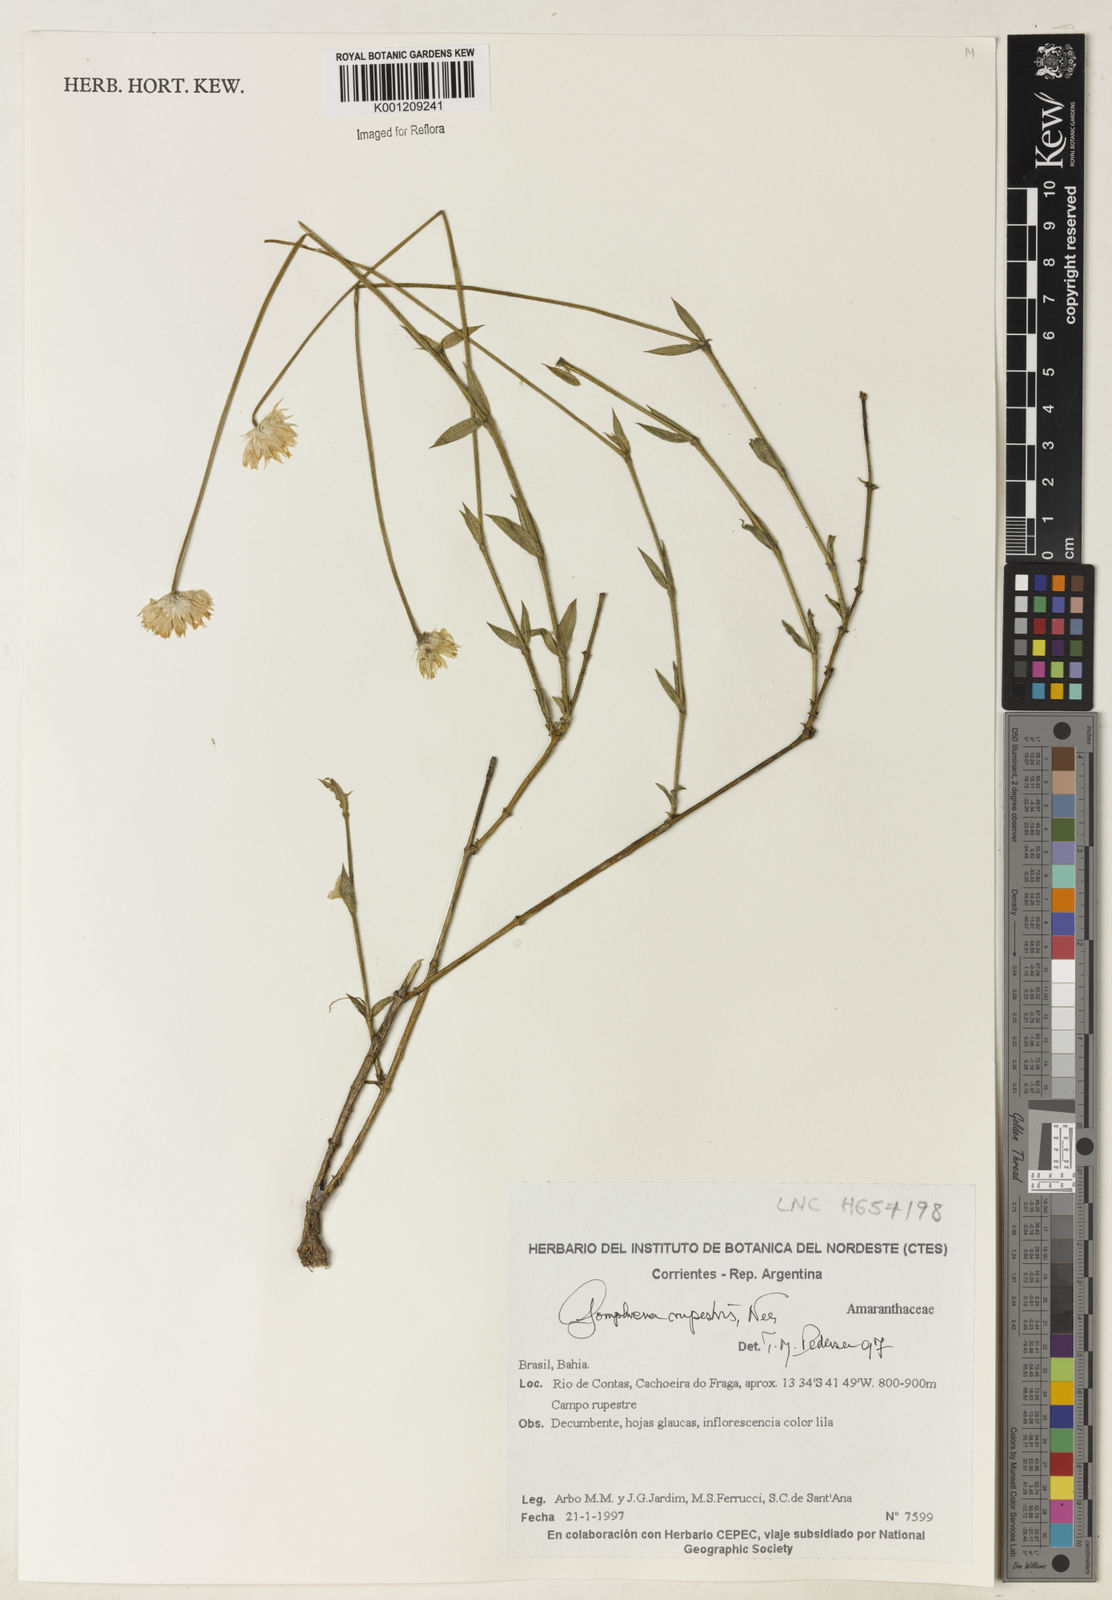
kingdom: Plantae
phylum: Tracheophyta
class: Magnoliopsida
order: Caryophyllales
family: Amaranthaceae
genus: Gomphrena
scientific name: Gomphrena rupestris
